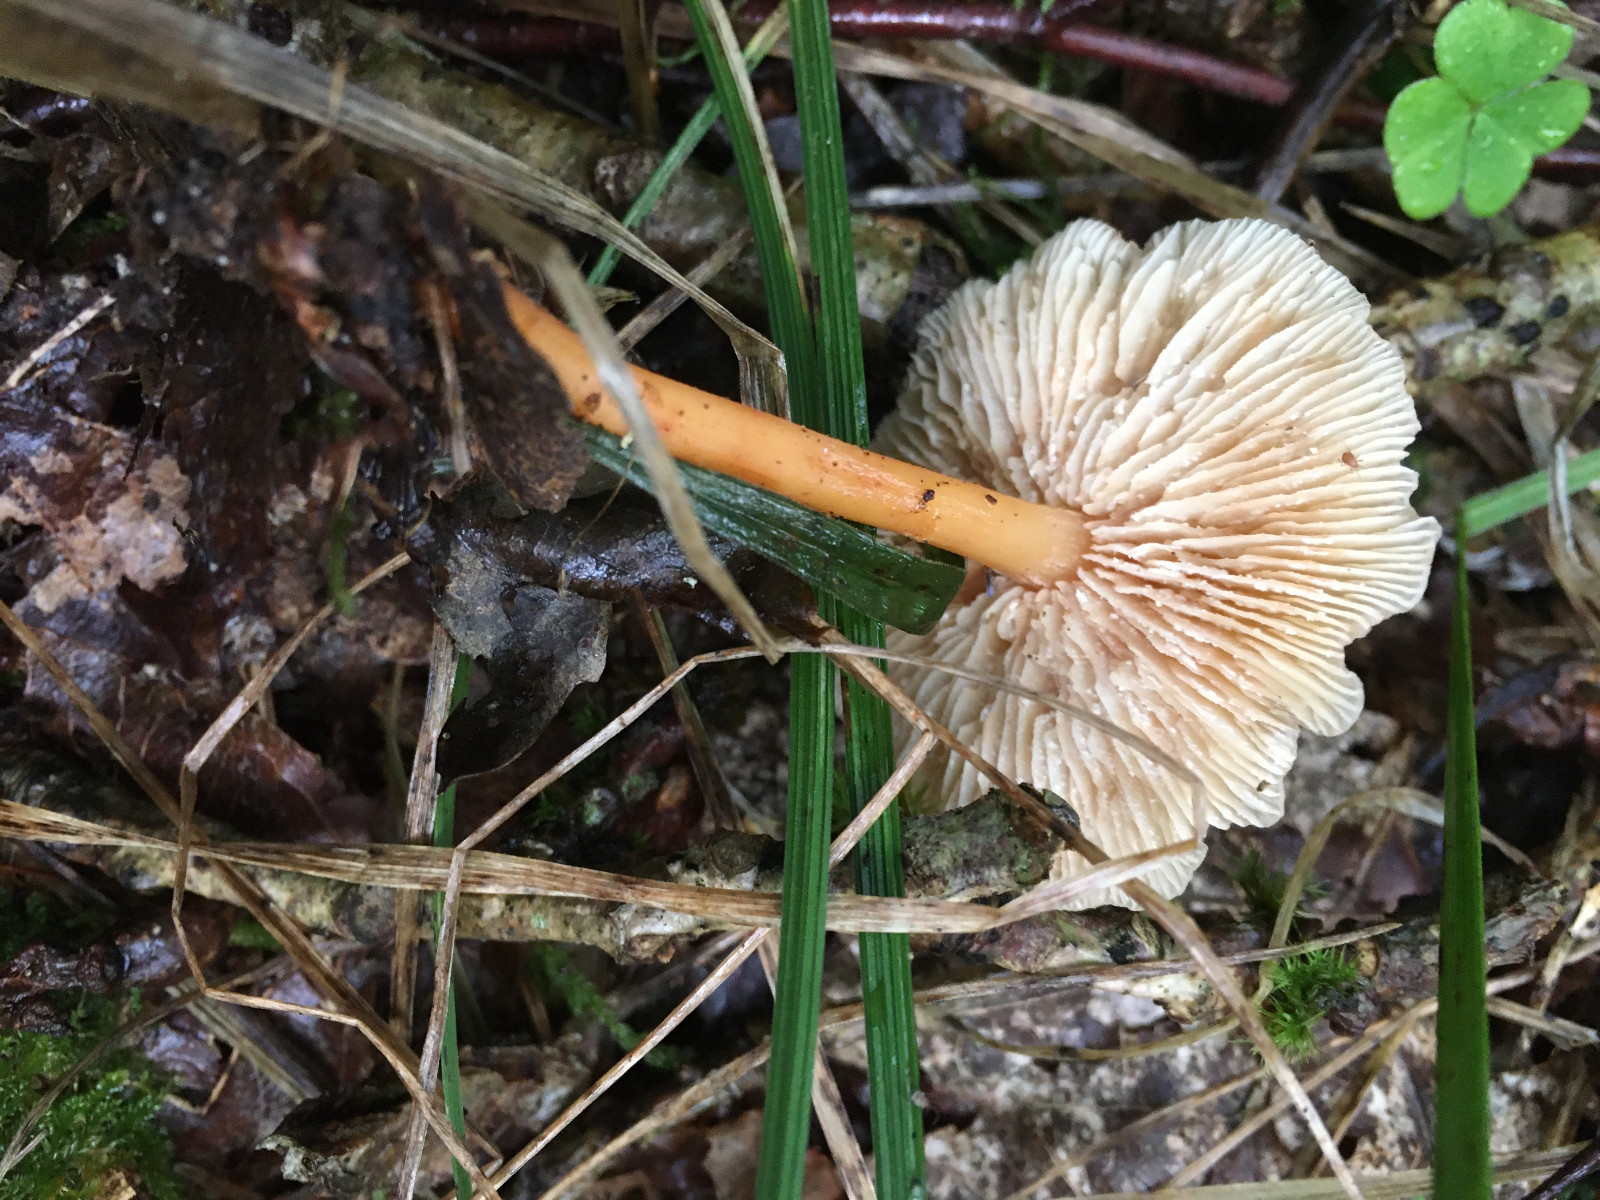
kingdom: Fungi
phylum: Basidiomycota
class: Agaricomycetes
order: Agaricales
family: Omphalotaceae
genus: Gymnopus
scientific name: Gymnopus dryophilus
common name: løv-fladhat
